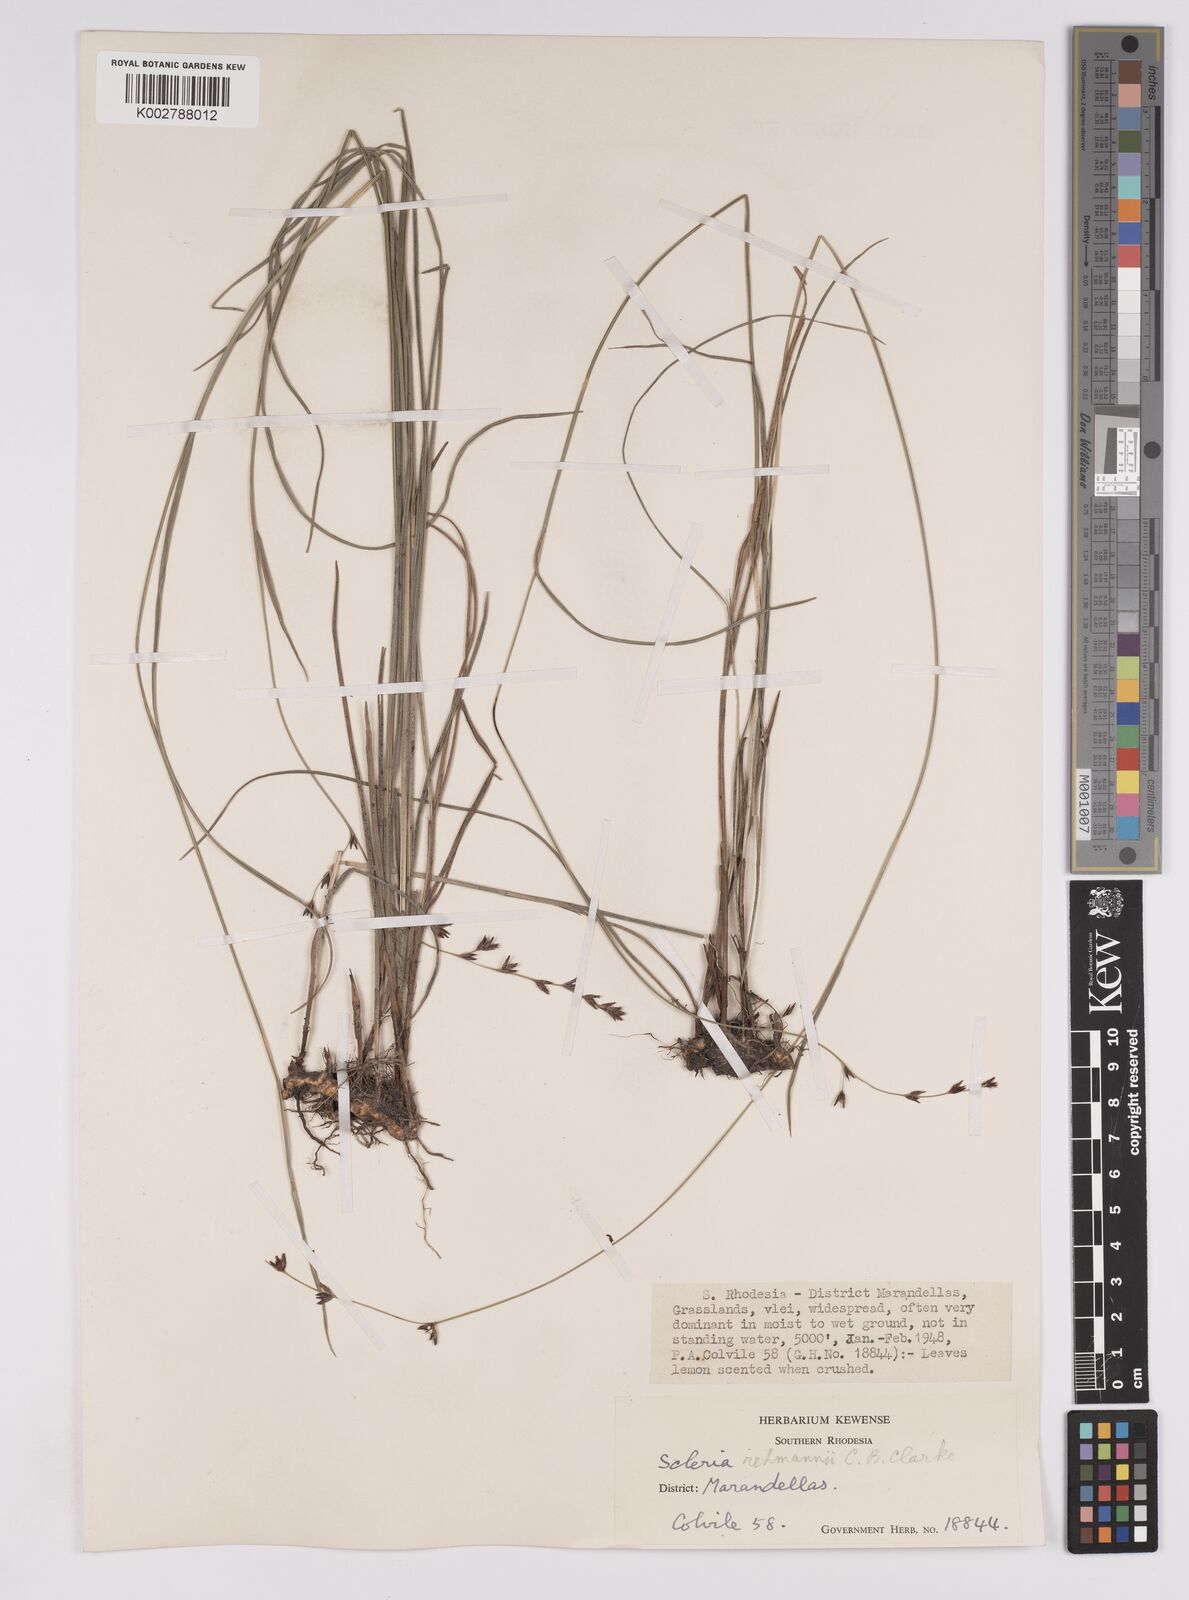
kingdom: Plantae
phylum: Tracheophyta
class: Liliopsida
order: Poales
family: Cyperaceae
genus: Scleria
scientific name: Scleria rehmannii
